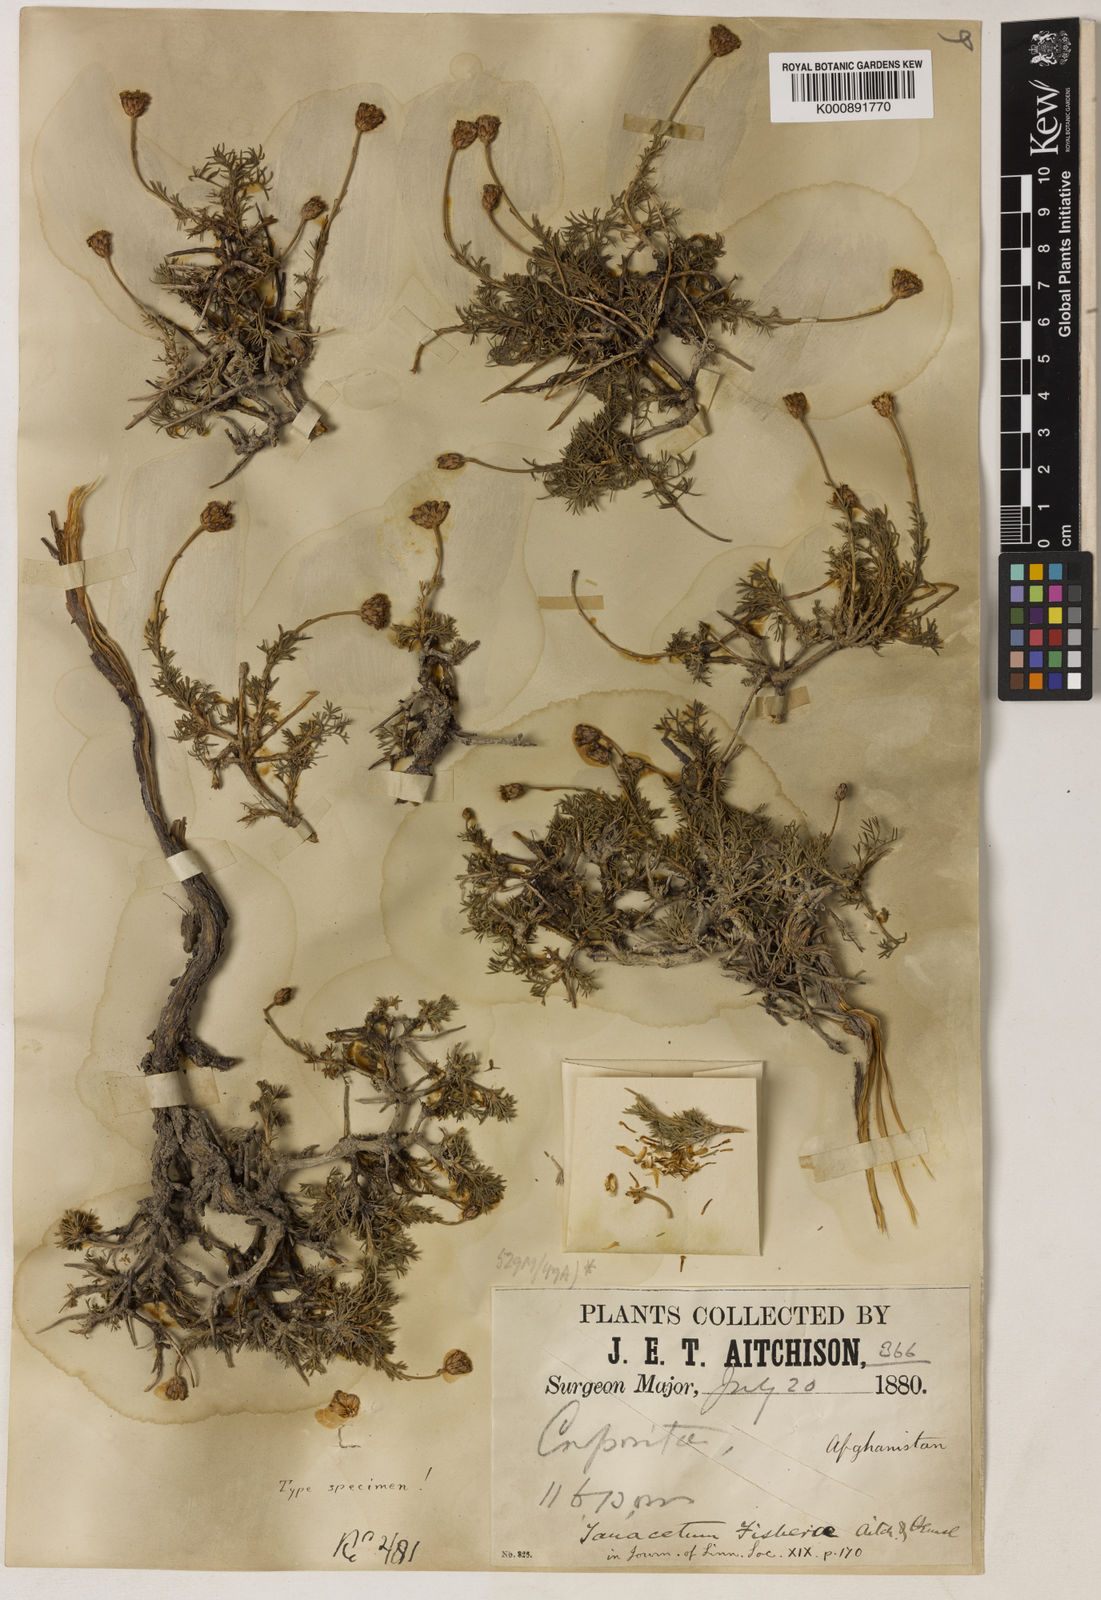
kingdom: Plantae
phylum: Tracheophyta
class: Magnoliopsida
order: Asterales
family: Asteraceae
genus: Xylanthemum
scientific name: Xylanthemum fisherae
